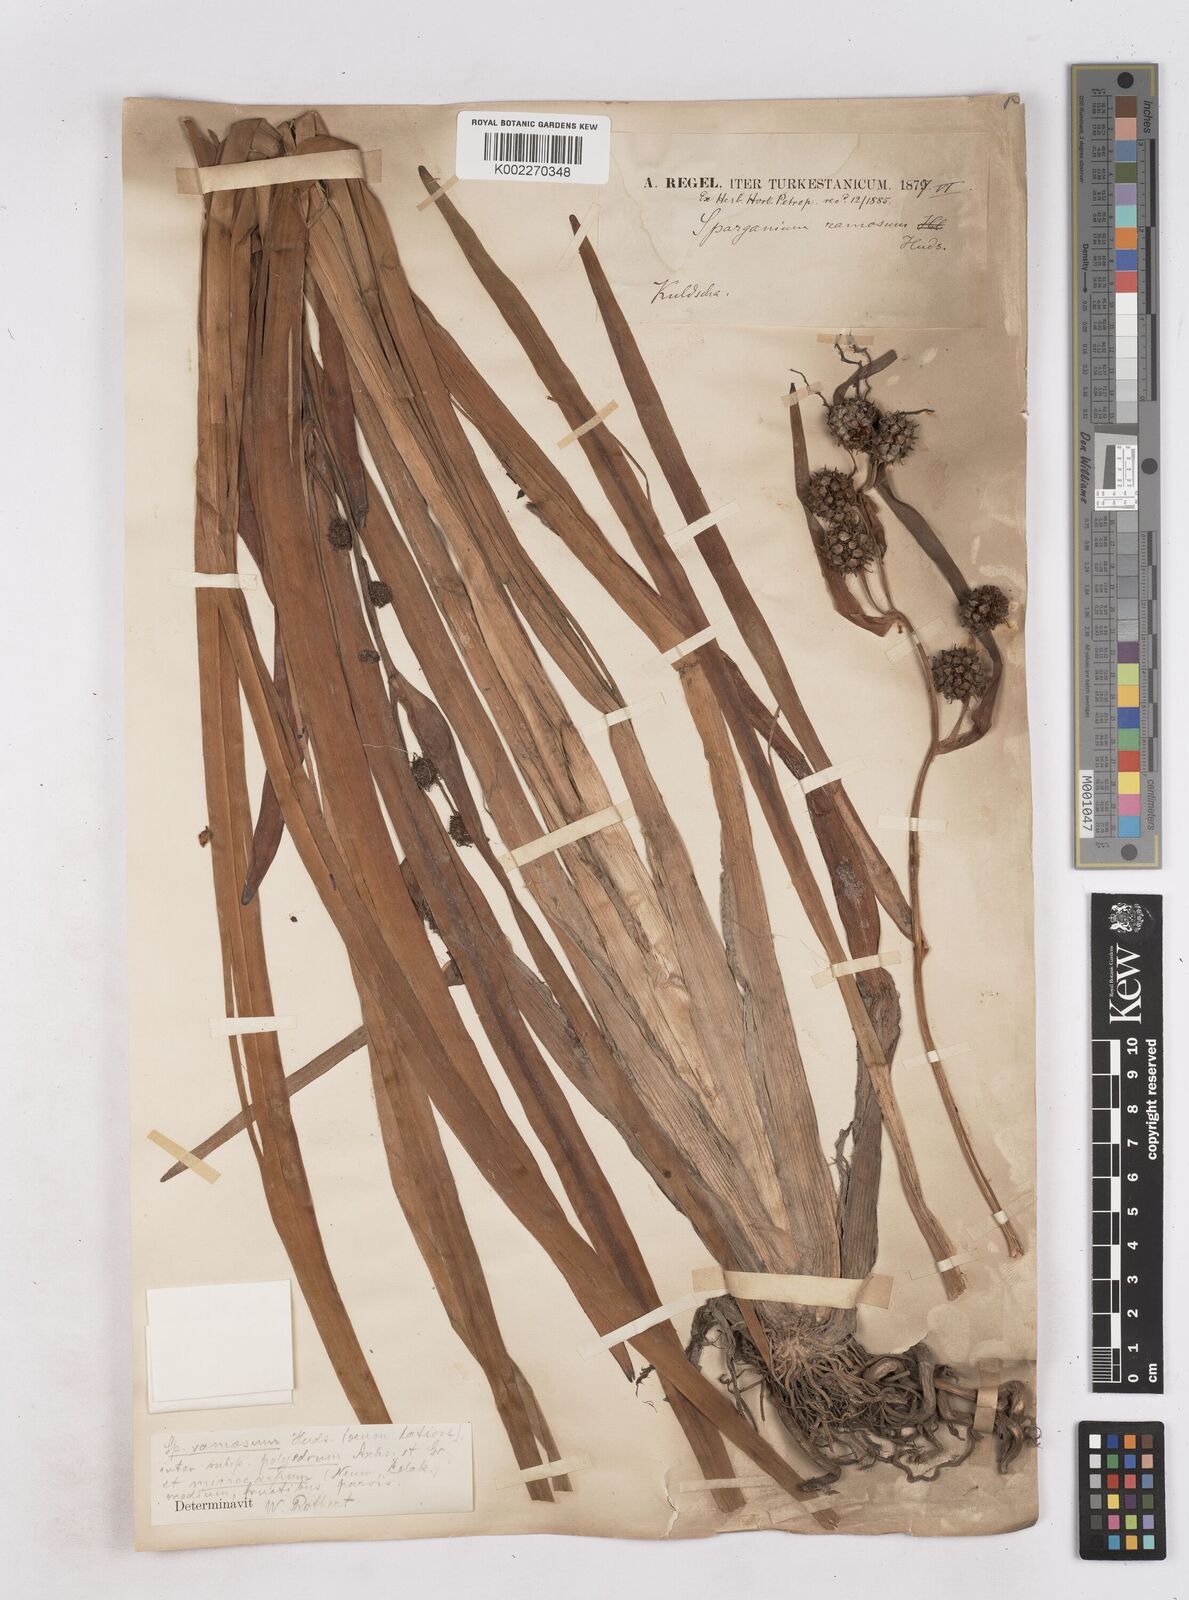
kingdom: Plantae
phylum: Tracheophyta
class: Liliopsida
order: Poales
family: Typhaceae
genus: Sparganium
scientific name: Sparganium
